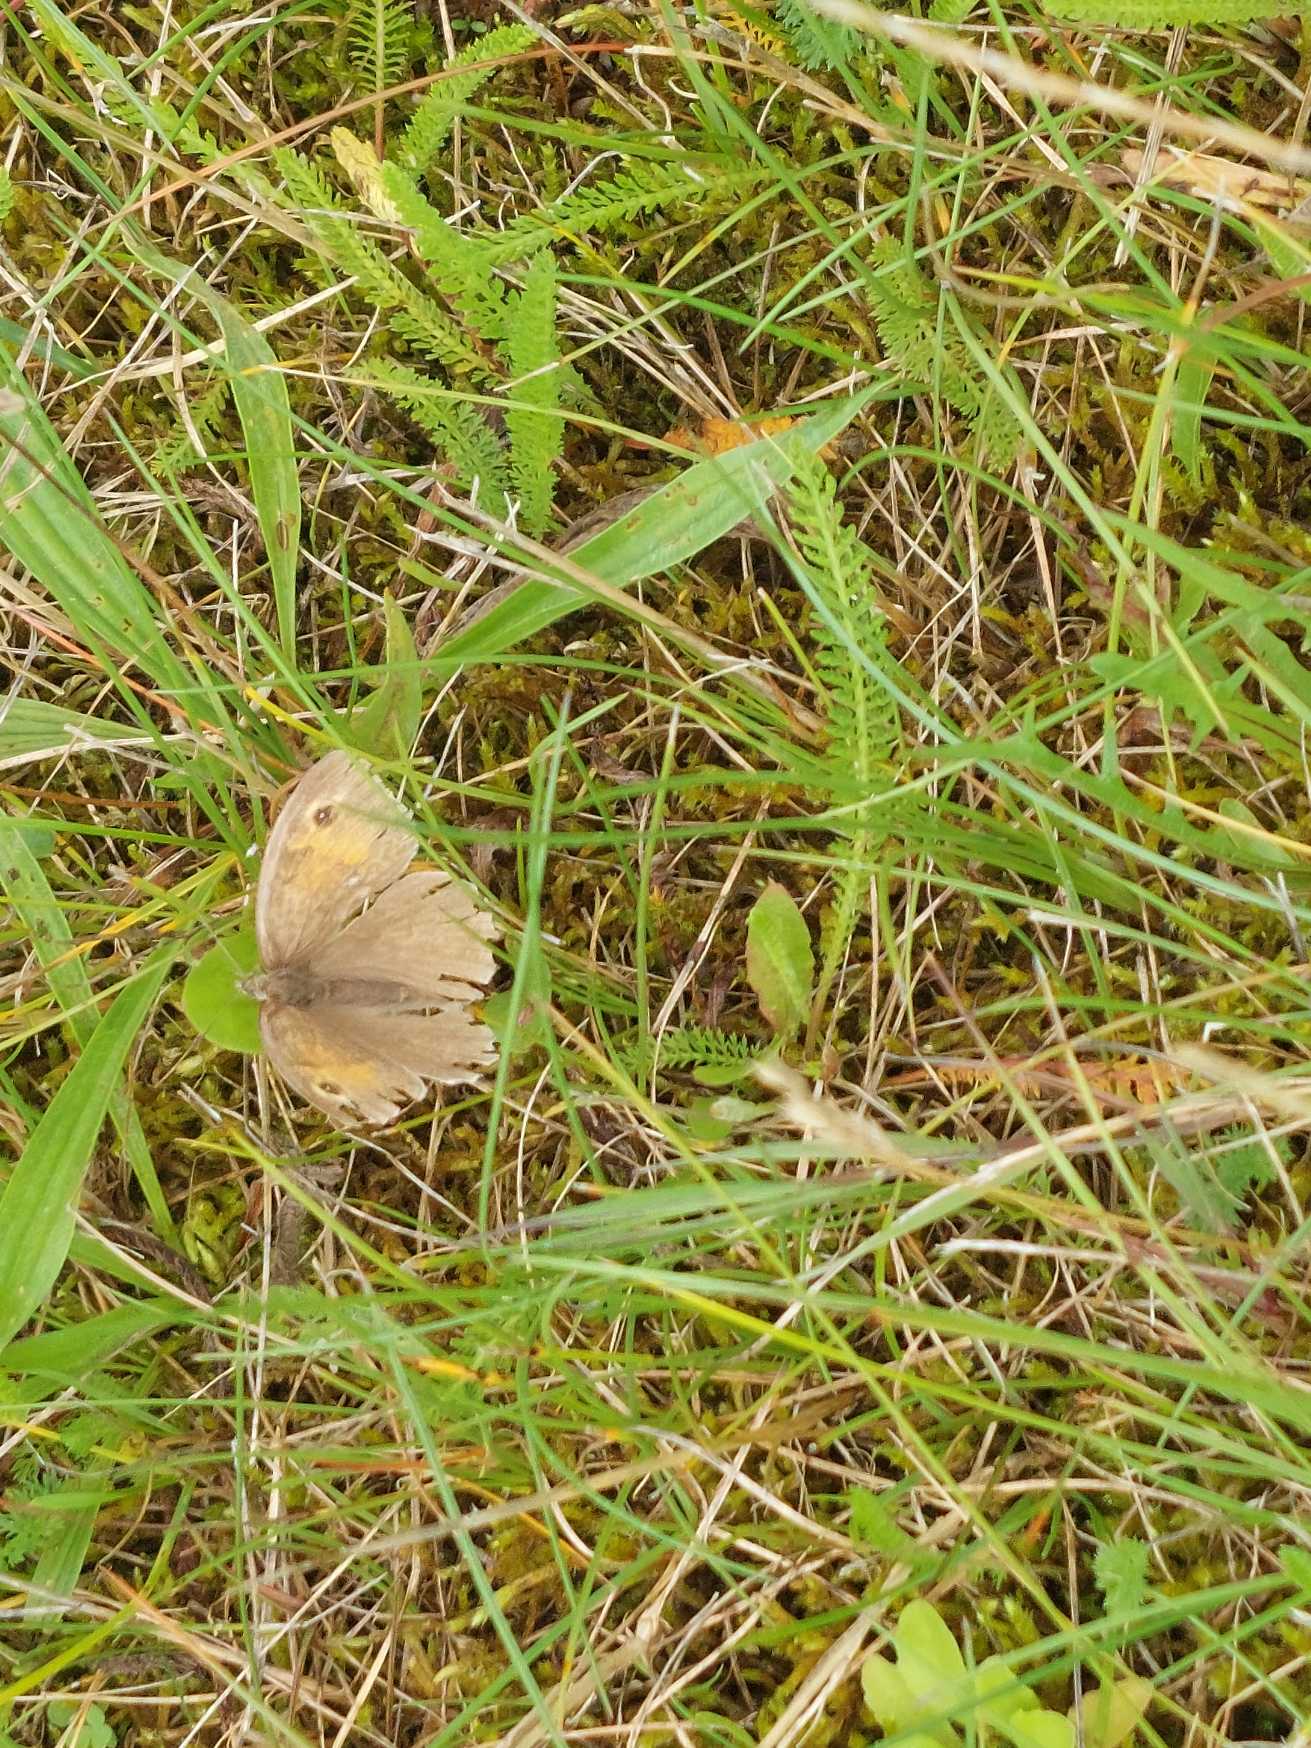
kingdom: Animalia
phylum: Arthropoda
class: Insecta
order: Lepidoptera
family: Nymphalidae
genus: Maniola
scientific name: Maniola jurtina
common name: Græsrandøje
